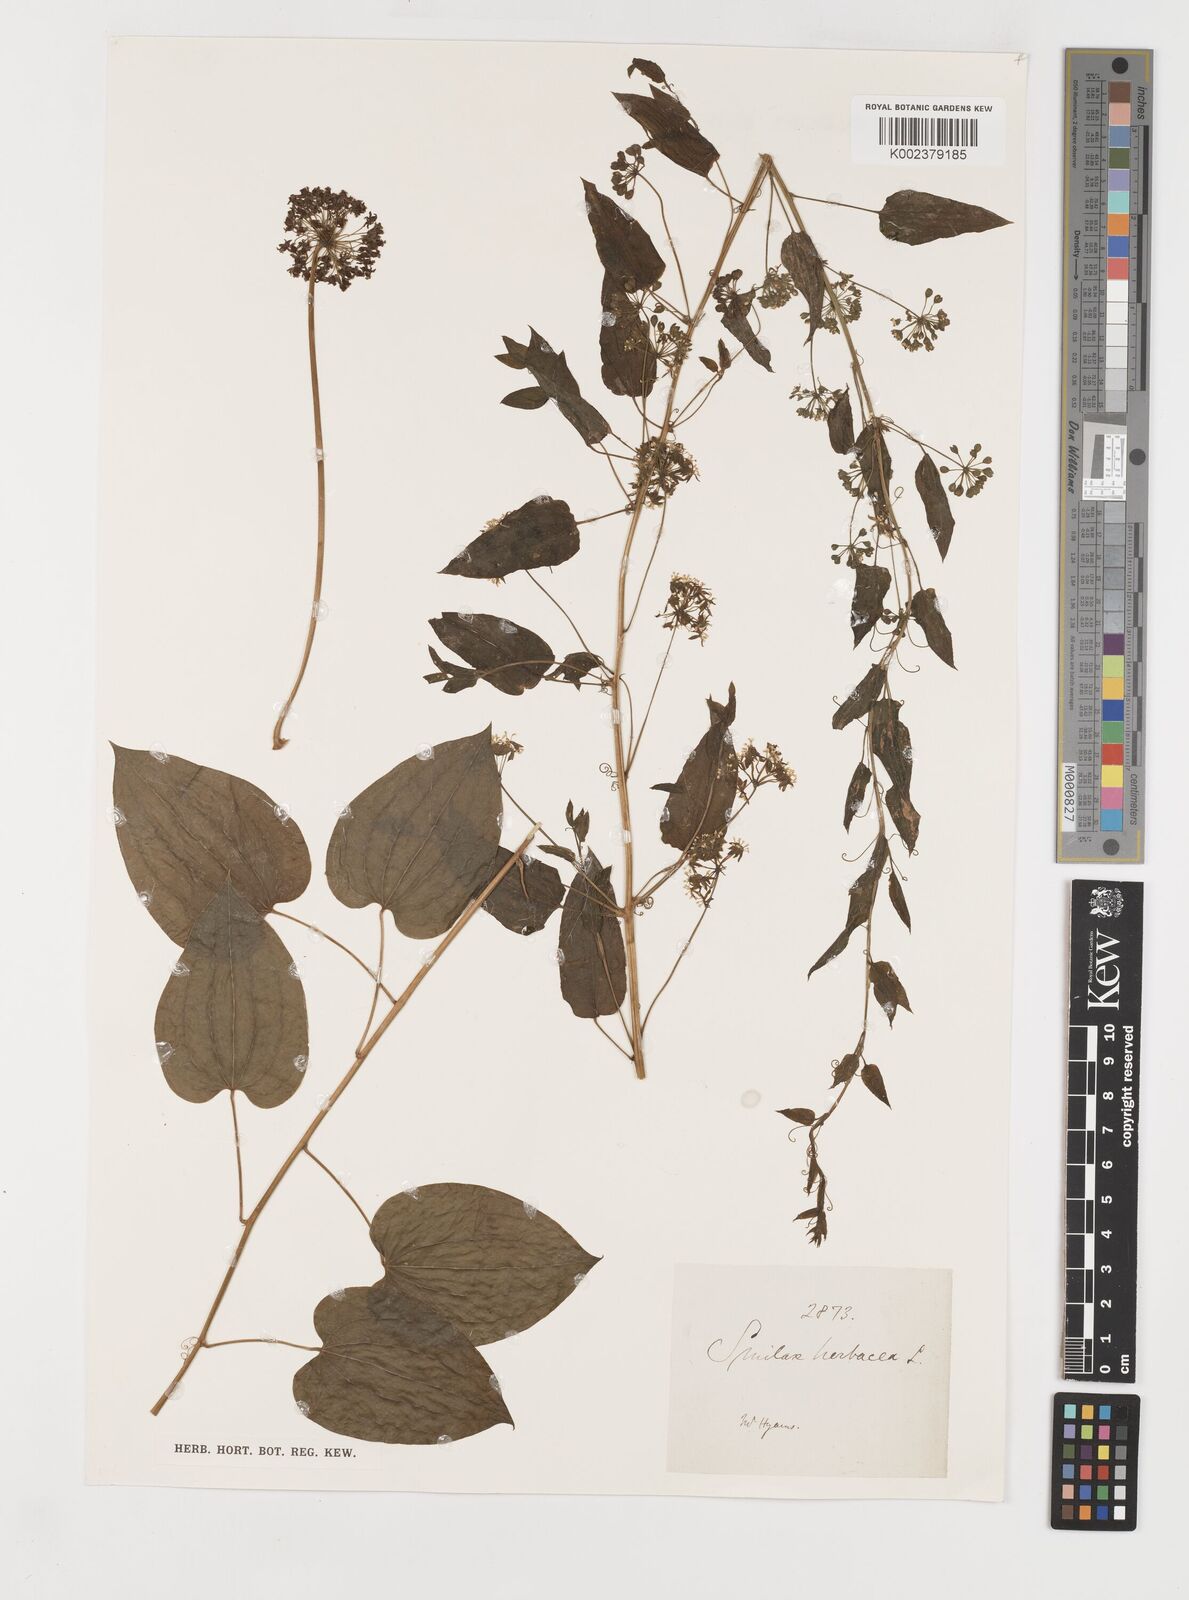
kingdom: Plantae
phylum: Tracheophyta
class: Liliopsida
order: Liliales
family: Smilacaceae
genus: Smilax
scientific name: Smilax herbacea
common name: Jacob's-ladder
